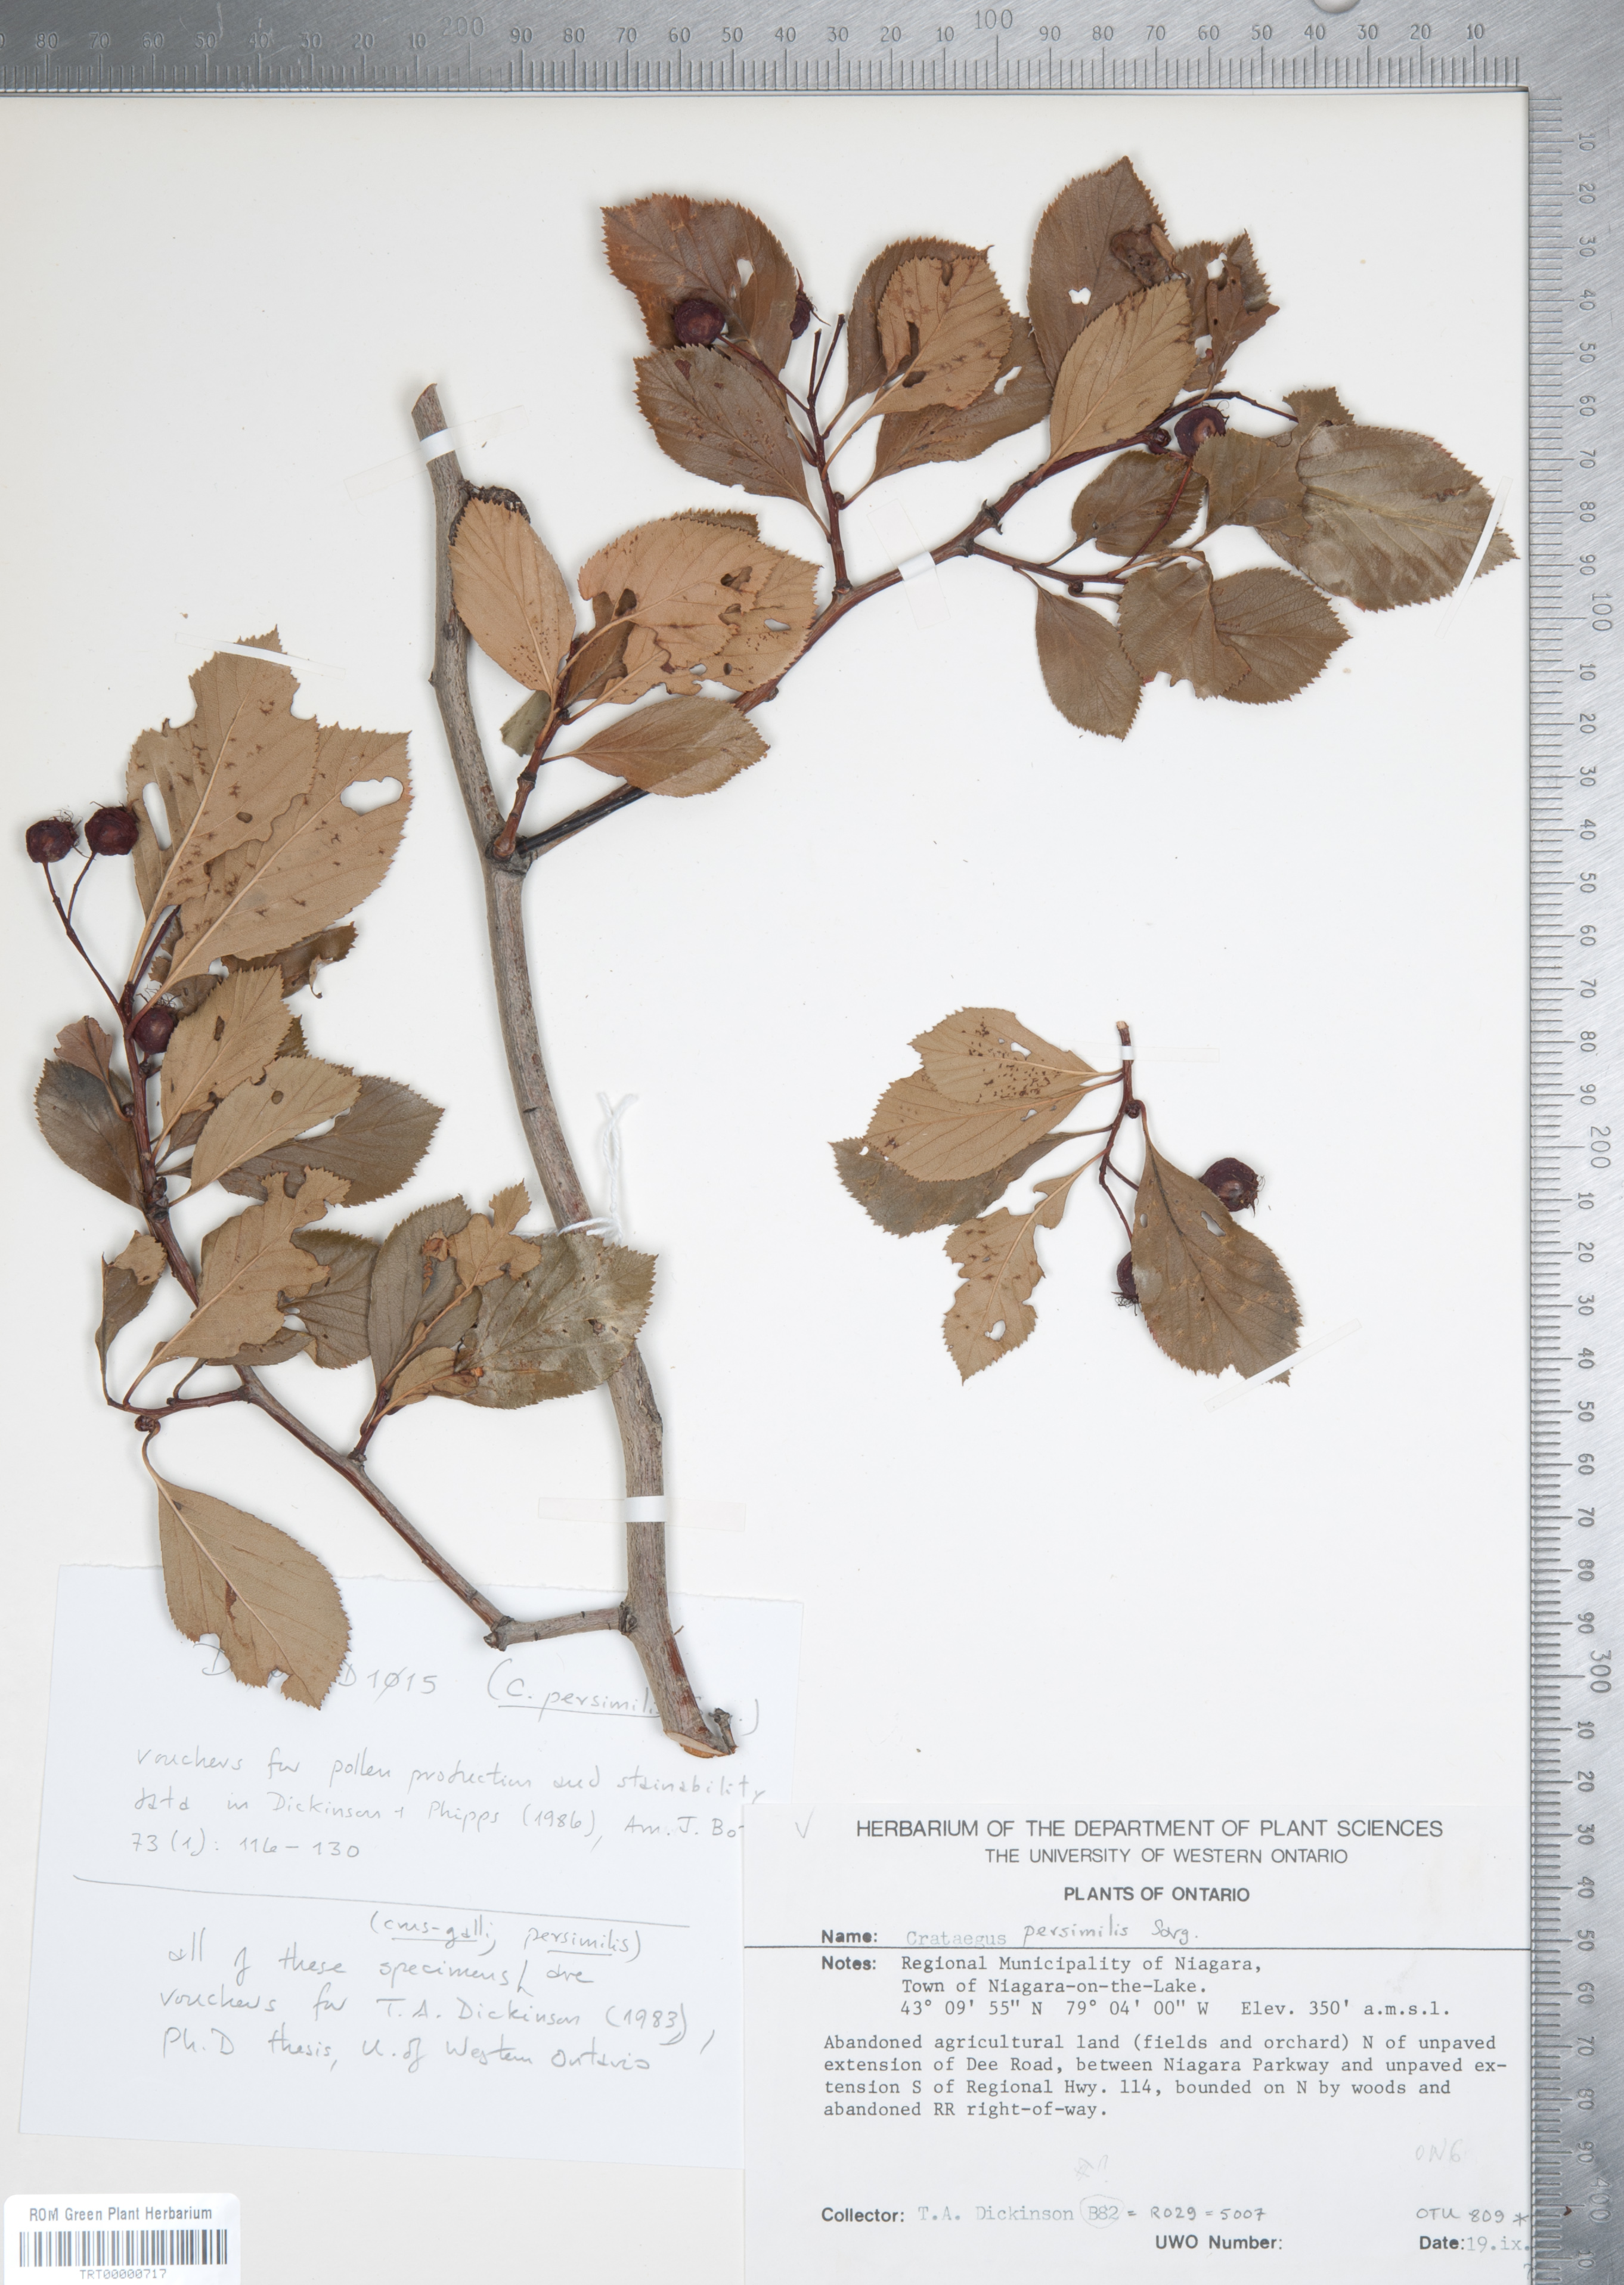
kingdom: Plantae
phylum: Tracheophyta
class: Magnoliopsida
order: Rosales
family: Rosaceae
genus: Crataegus
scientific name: Crataegus persimilis
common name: Broad-leaved cockspurthorn
